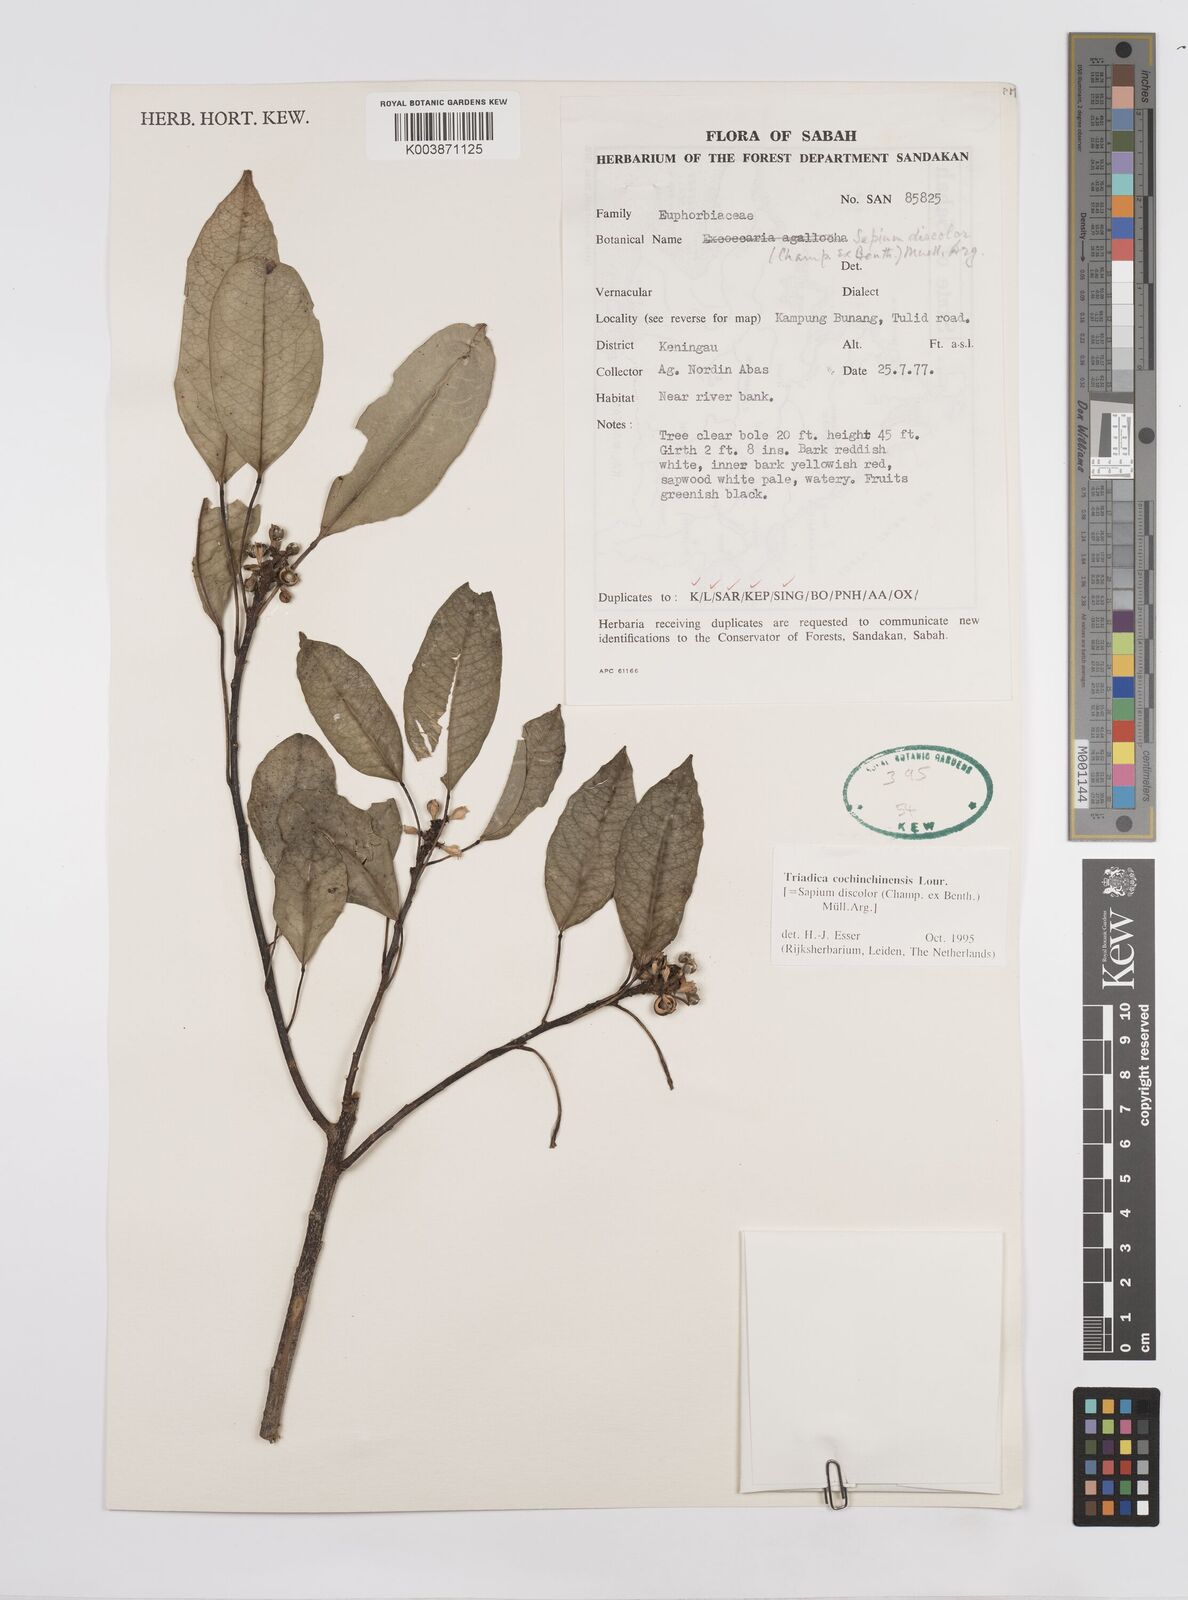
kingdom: Plantae
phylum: Tracheophyta
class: Magnoliopsida
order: Malpighiales
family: Euphorbiaceae
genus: Triadica
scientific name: Triadica cochinchinensis
